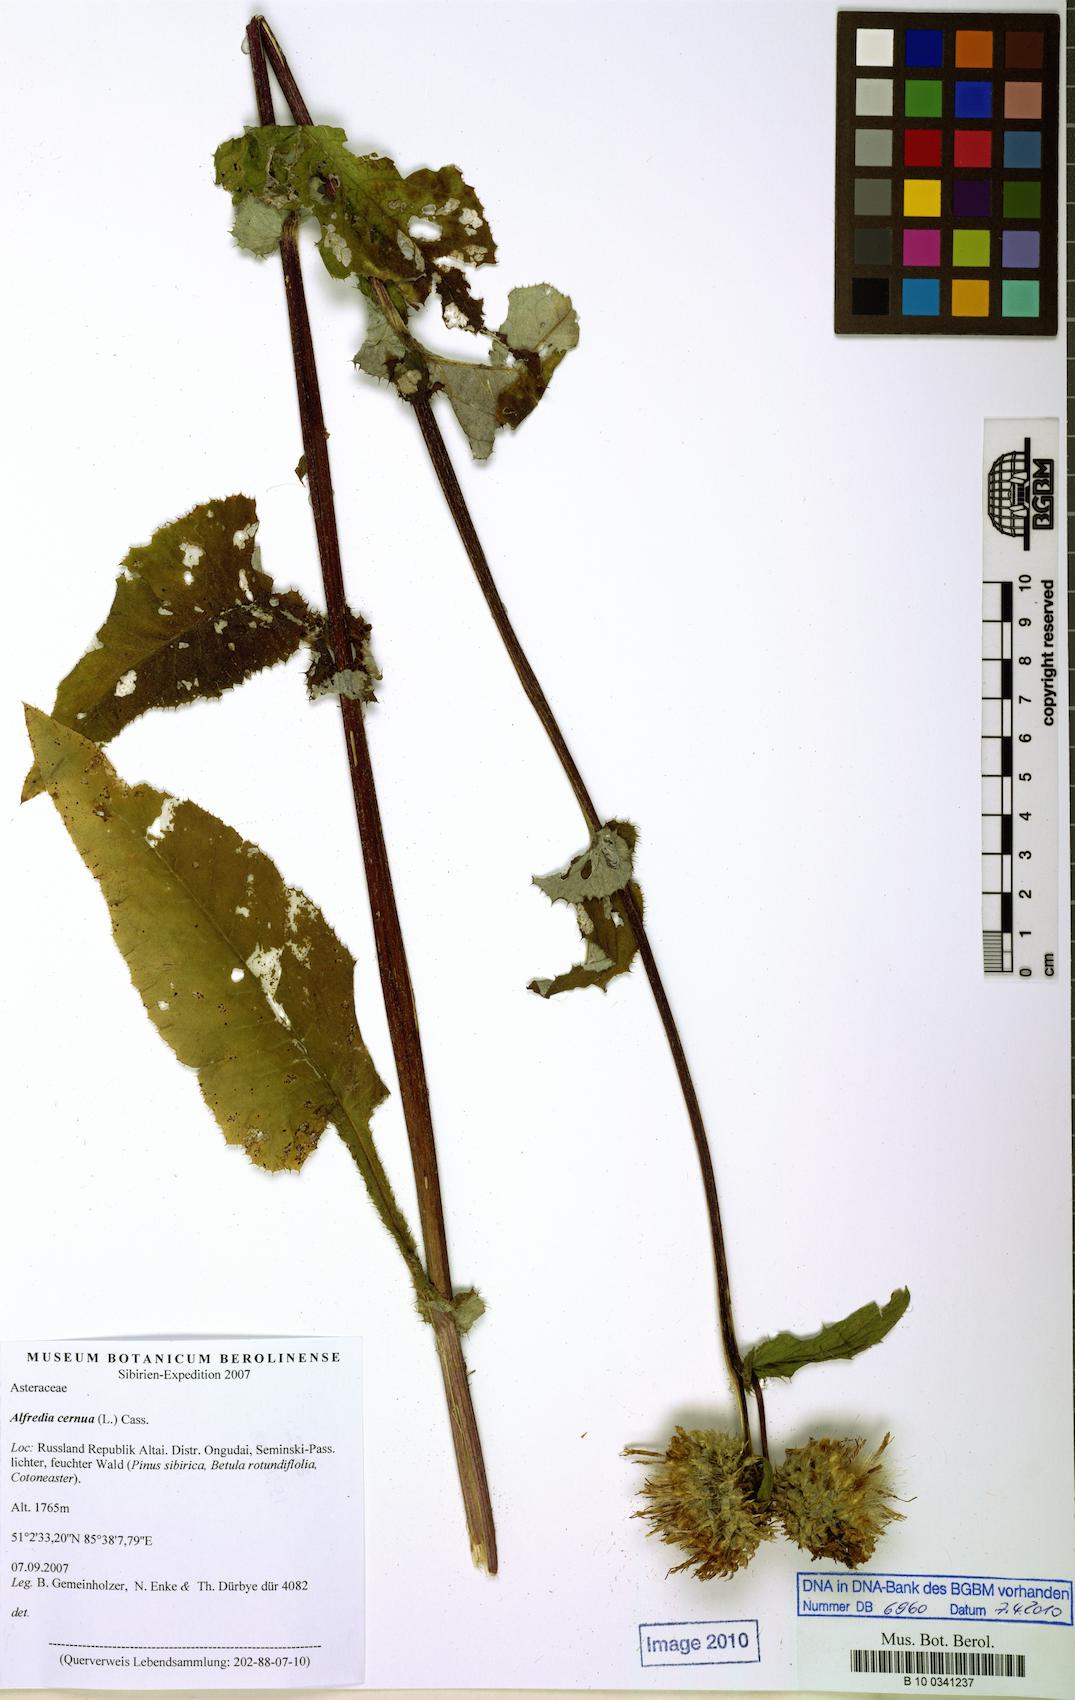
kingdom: Plantae
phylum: Tracheophyta
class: Magnoliopsida
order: Asterales
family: Asteraceae
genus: Alfredia
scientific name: Alfredia cernua
